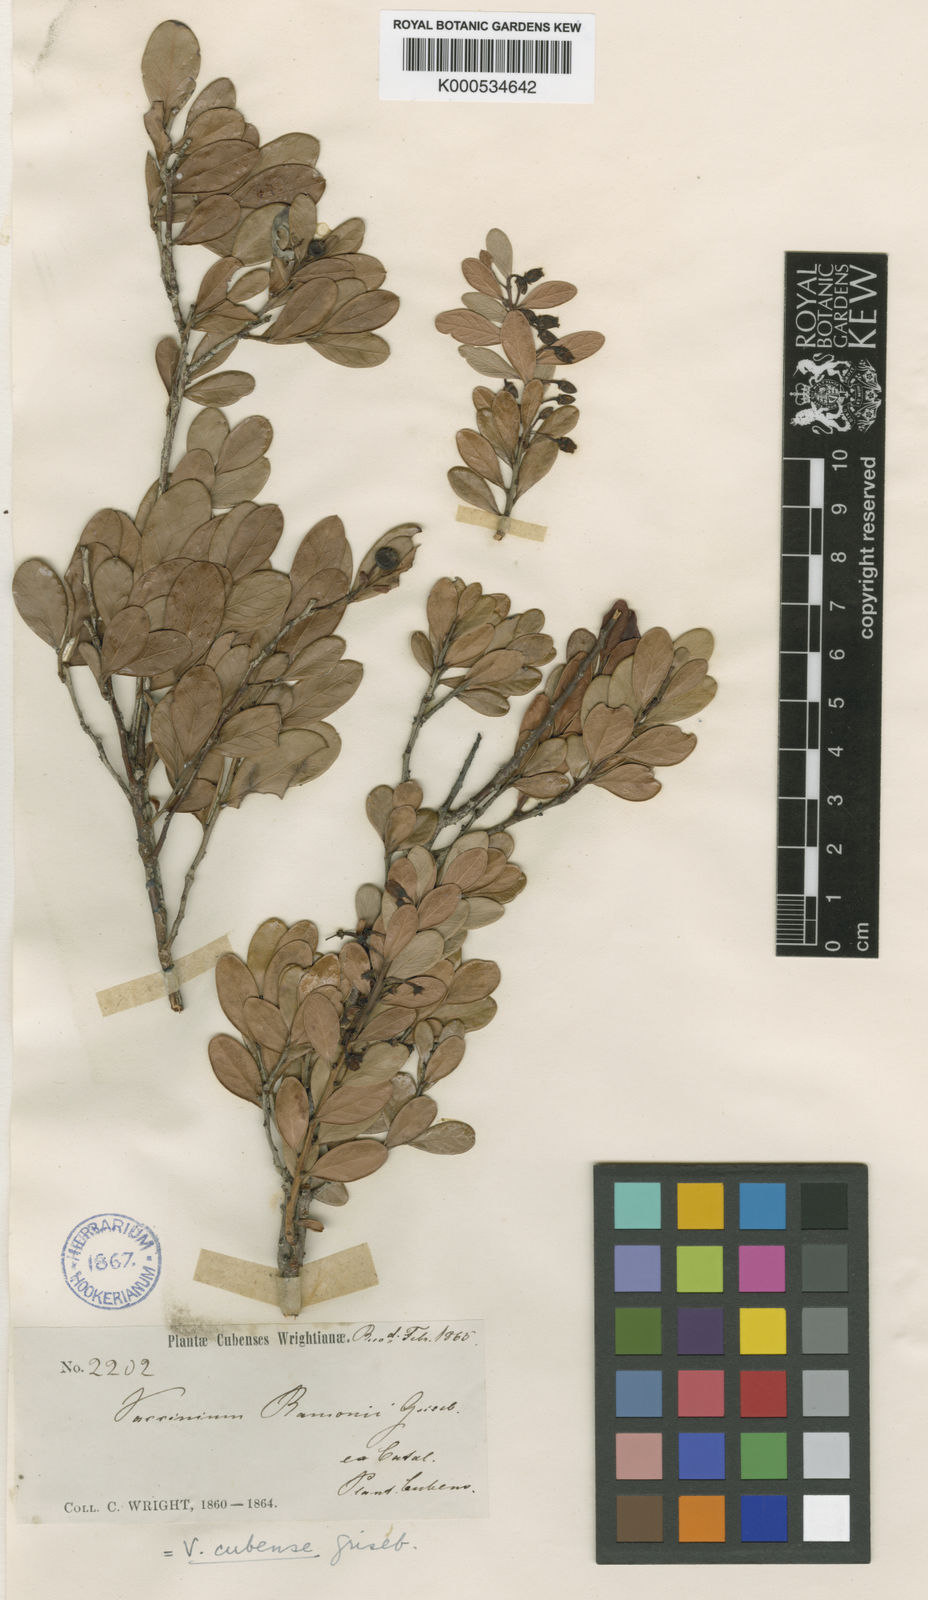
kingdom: Plantae
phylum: Tracheophyta
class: Magnoliopsida
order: Ericales
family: Ericaceae
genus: Vaccinium
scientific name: Vaccinium cubense
